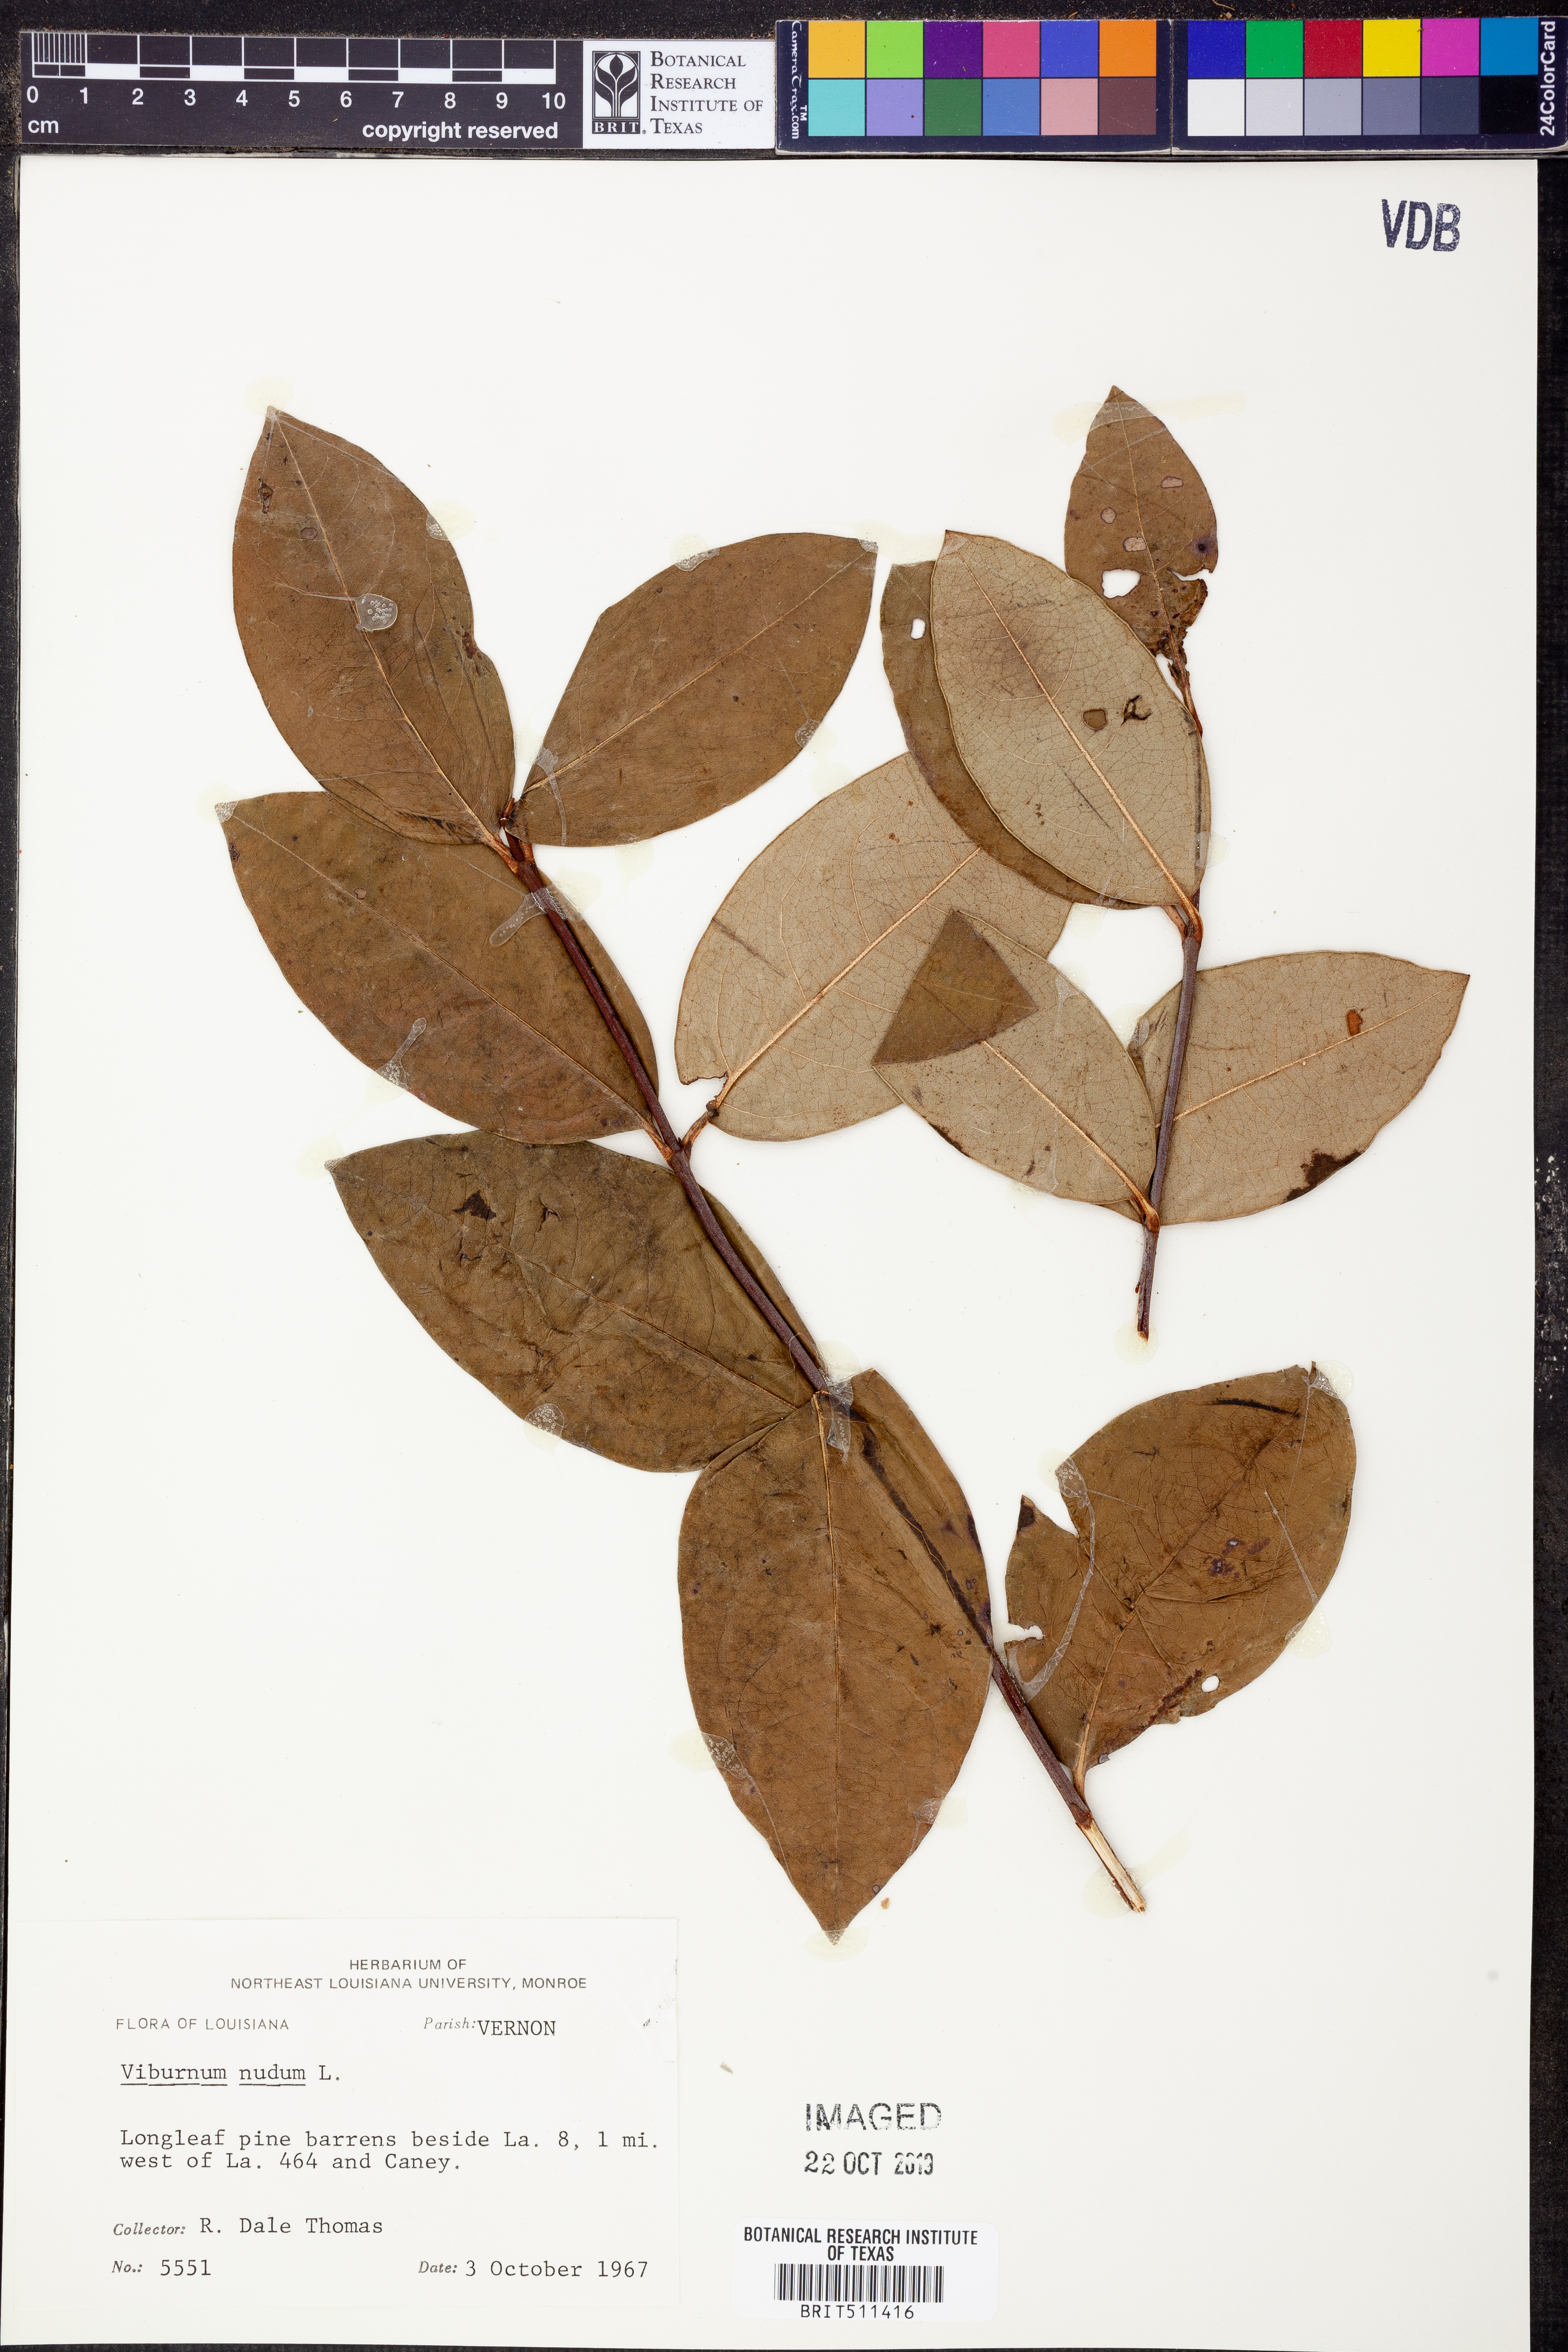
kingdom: Plantae
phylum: Tracheophyta
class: Magnoliopsida
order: Dipsacales
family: Viburnaceae
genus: Viburnum
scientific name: Viburnum nudum
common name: Possum haw
